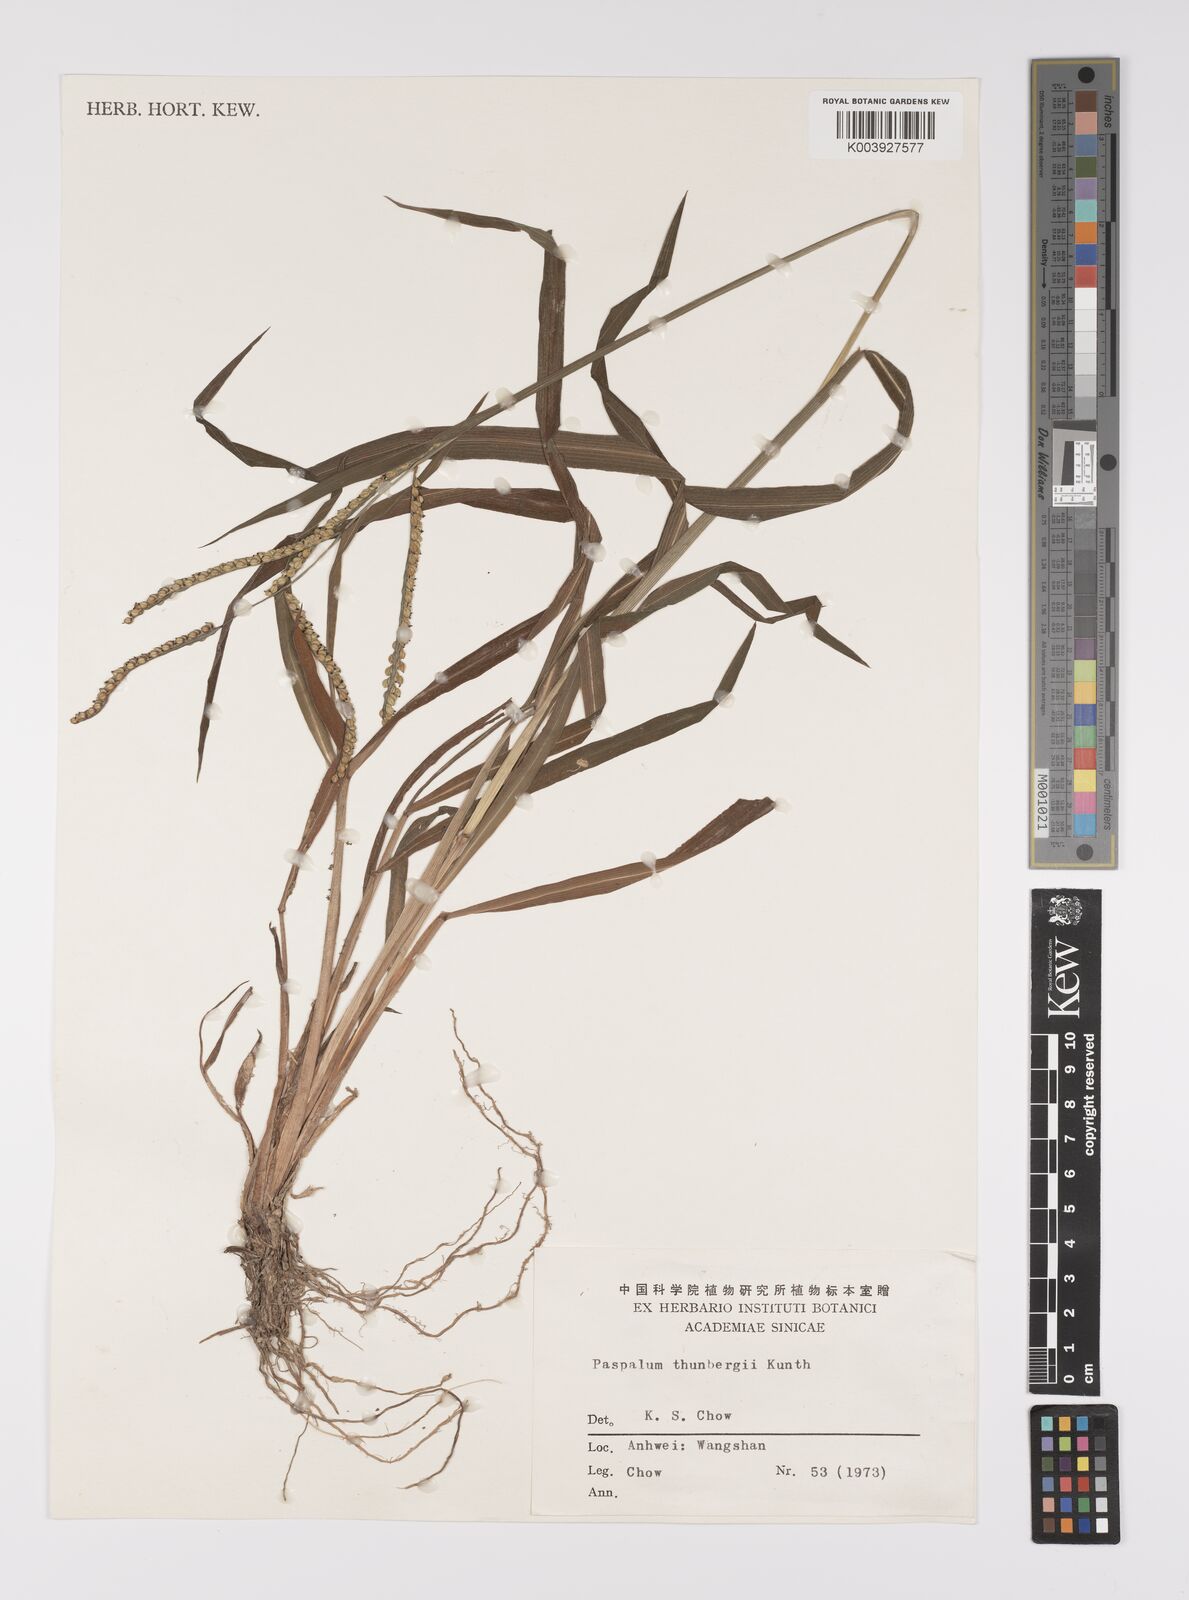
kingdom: Plantae
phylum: Tracheophyta
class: Liliopsida
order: Poales
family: Poaceae
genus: Paspalum
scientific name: Paspalum thunbergii
